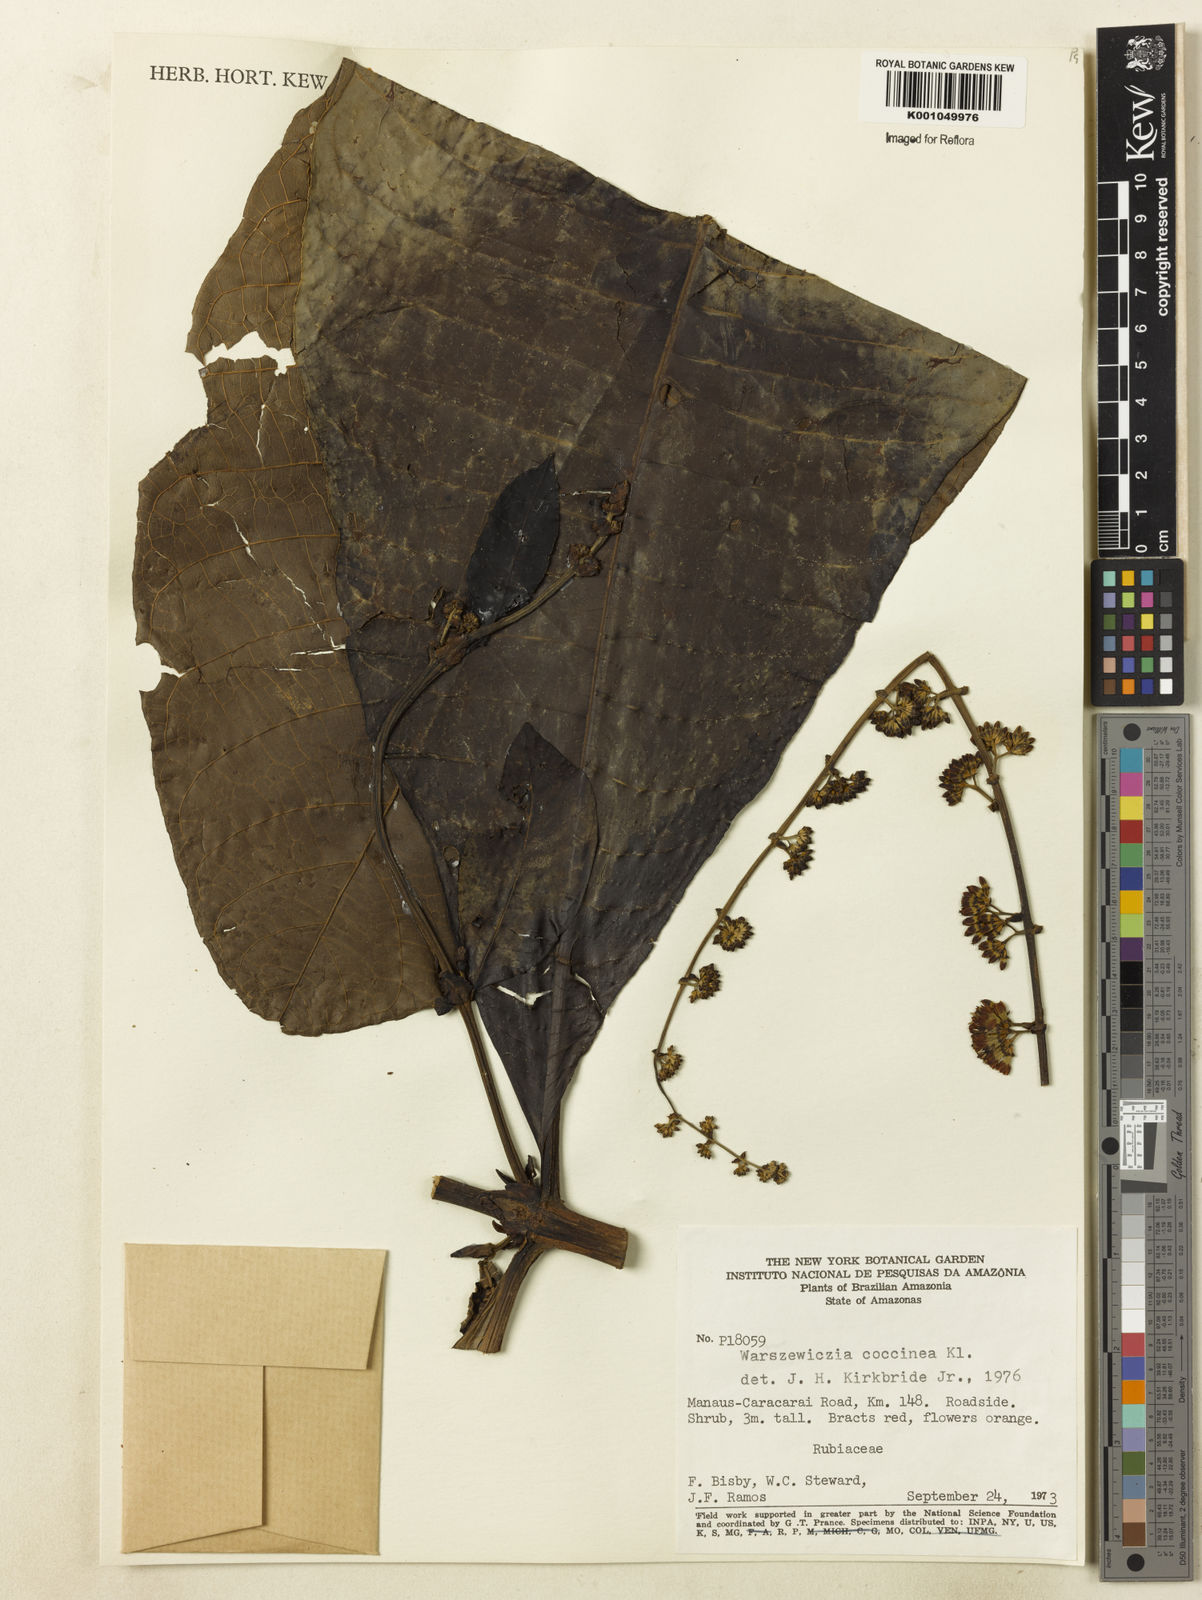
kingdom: Plantae
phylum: Tracheophyta
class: Magnoliopsida
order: Gentianales
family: Rubiaceae
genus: Warszewiczia
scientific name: Warszewiczia coccinea
